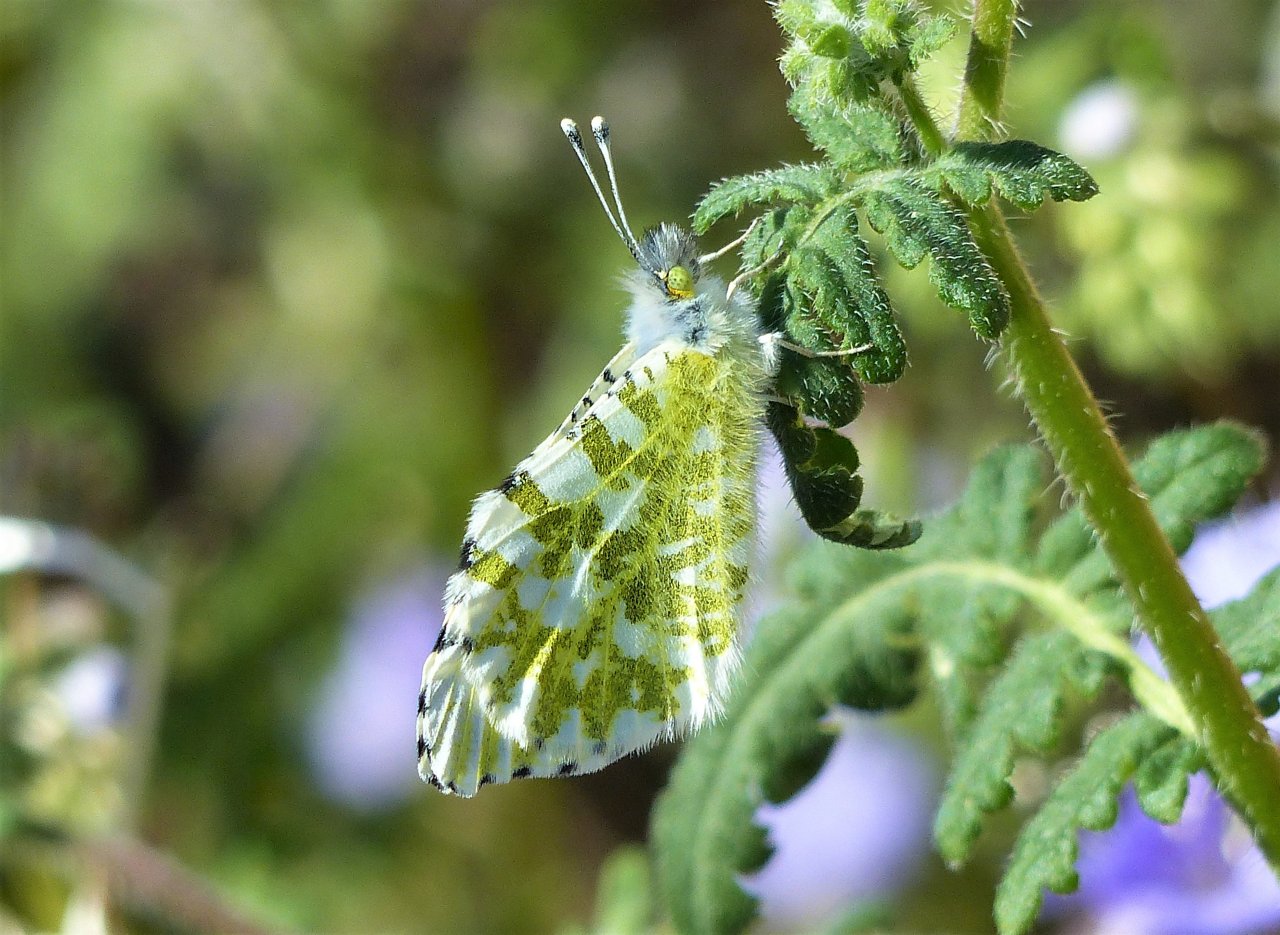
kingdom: Animalia
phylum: Arthropoda
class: Insecta
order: Lepidoptera
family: Pieridae
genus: Anthocharis
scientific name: Anthocharis cethura
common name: Desert Orangetip
